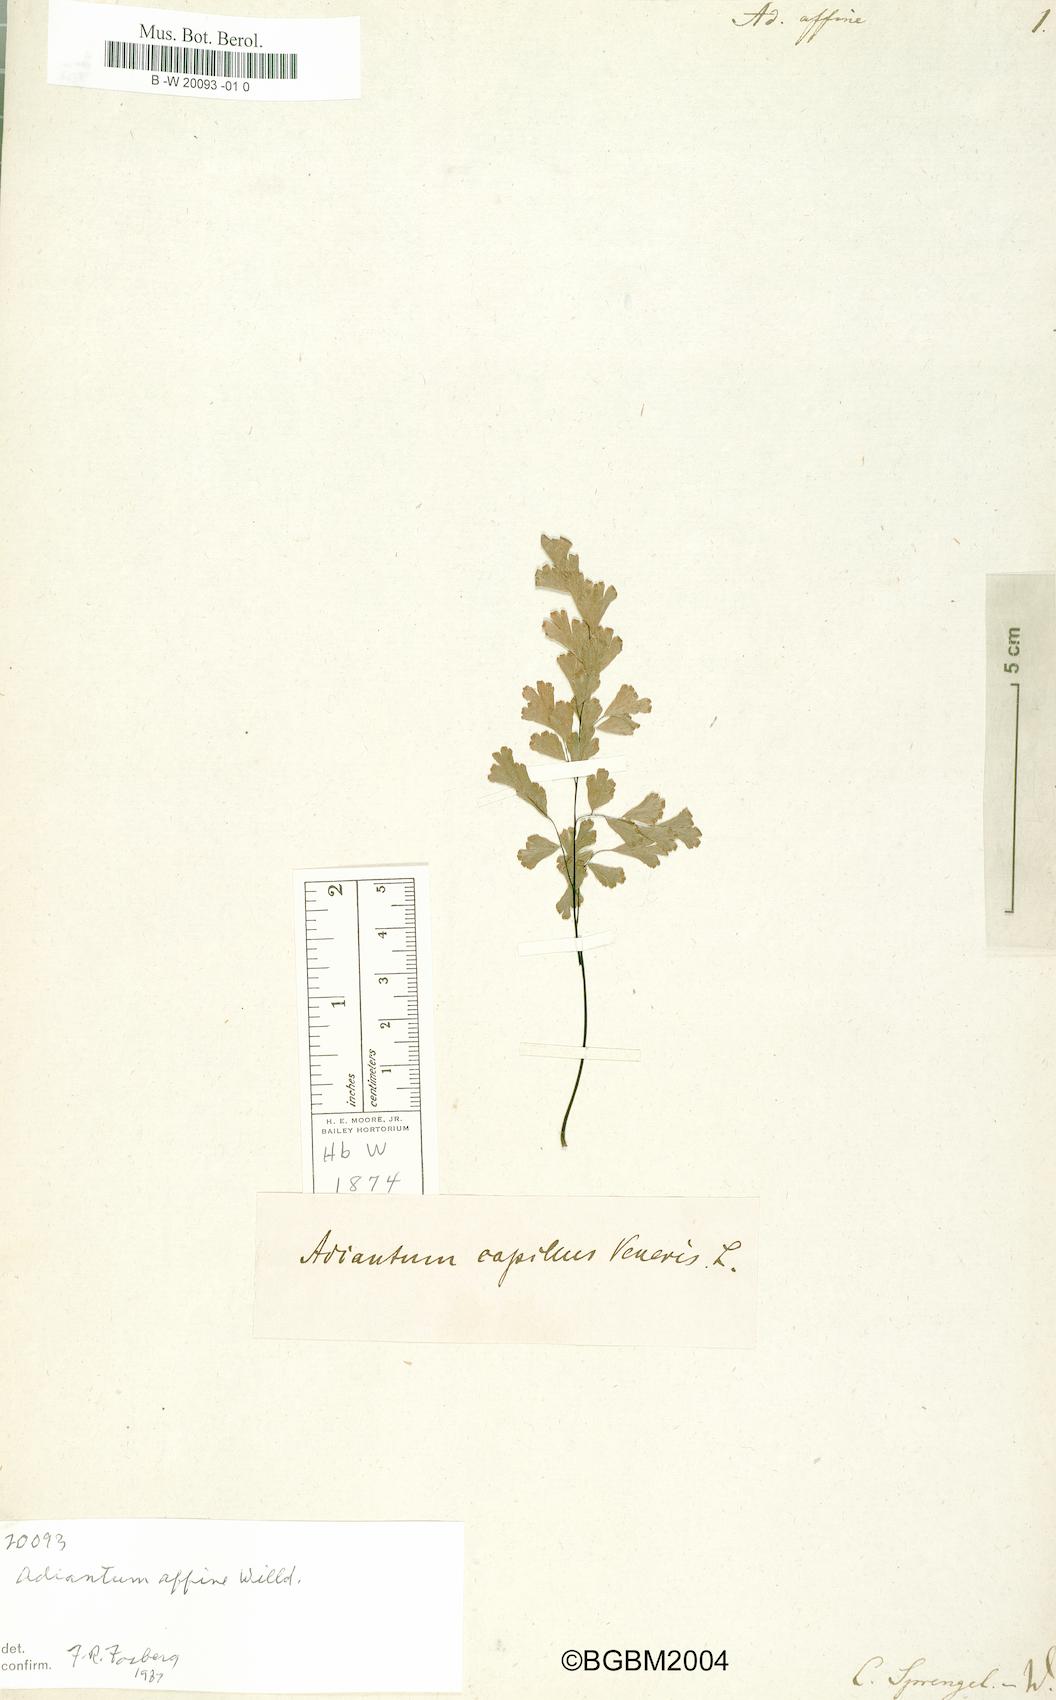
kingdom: Plantae
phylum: Tracheophyta
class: Polypodiopsida
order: Polypodiales
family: Pteridaceae
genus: Adiantum
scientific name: Adiantum capillus-veneris
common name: Maidenhair fern
